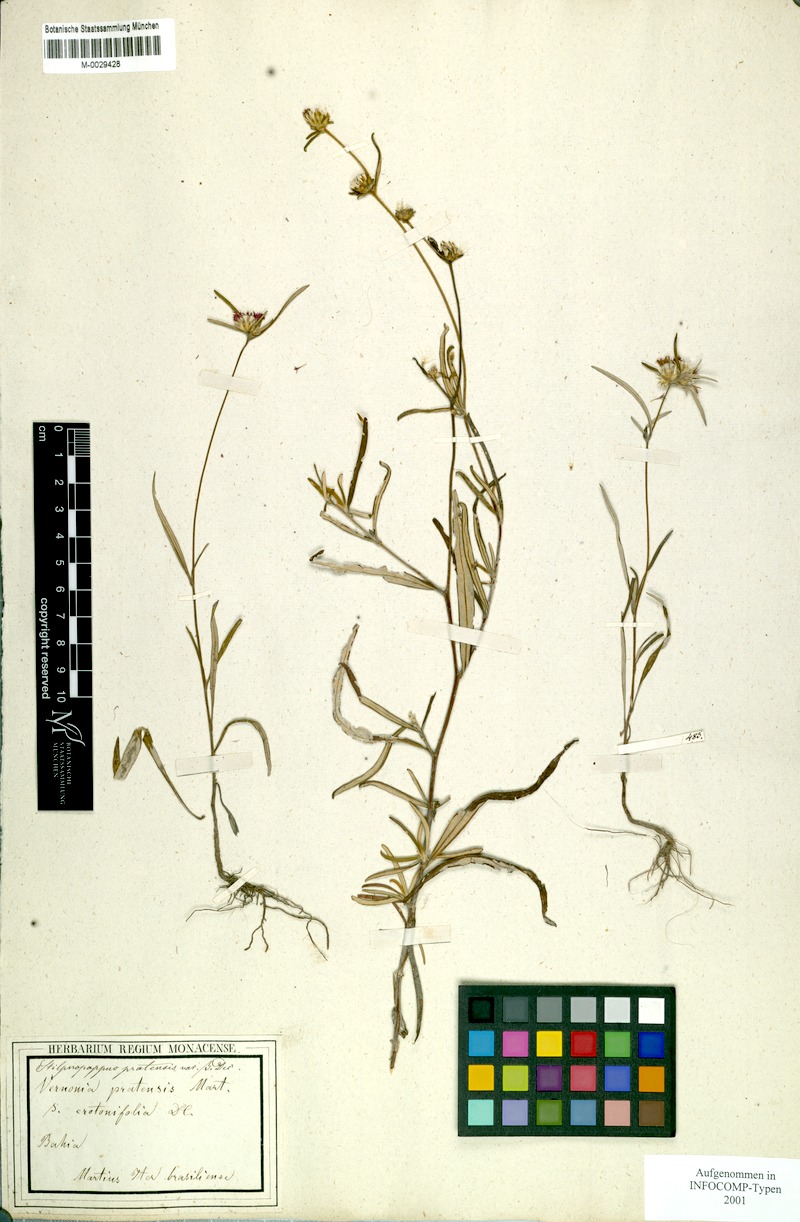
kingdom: Plantae
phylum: Tracheophyta
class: Magnoliopsida
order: Asterales
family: Asteraceae
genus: Stilpnopappus
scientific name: Stilpnopappus pratensis
